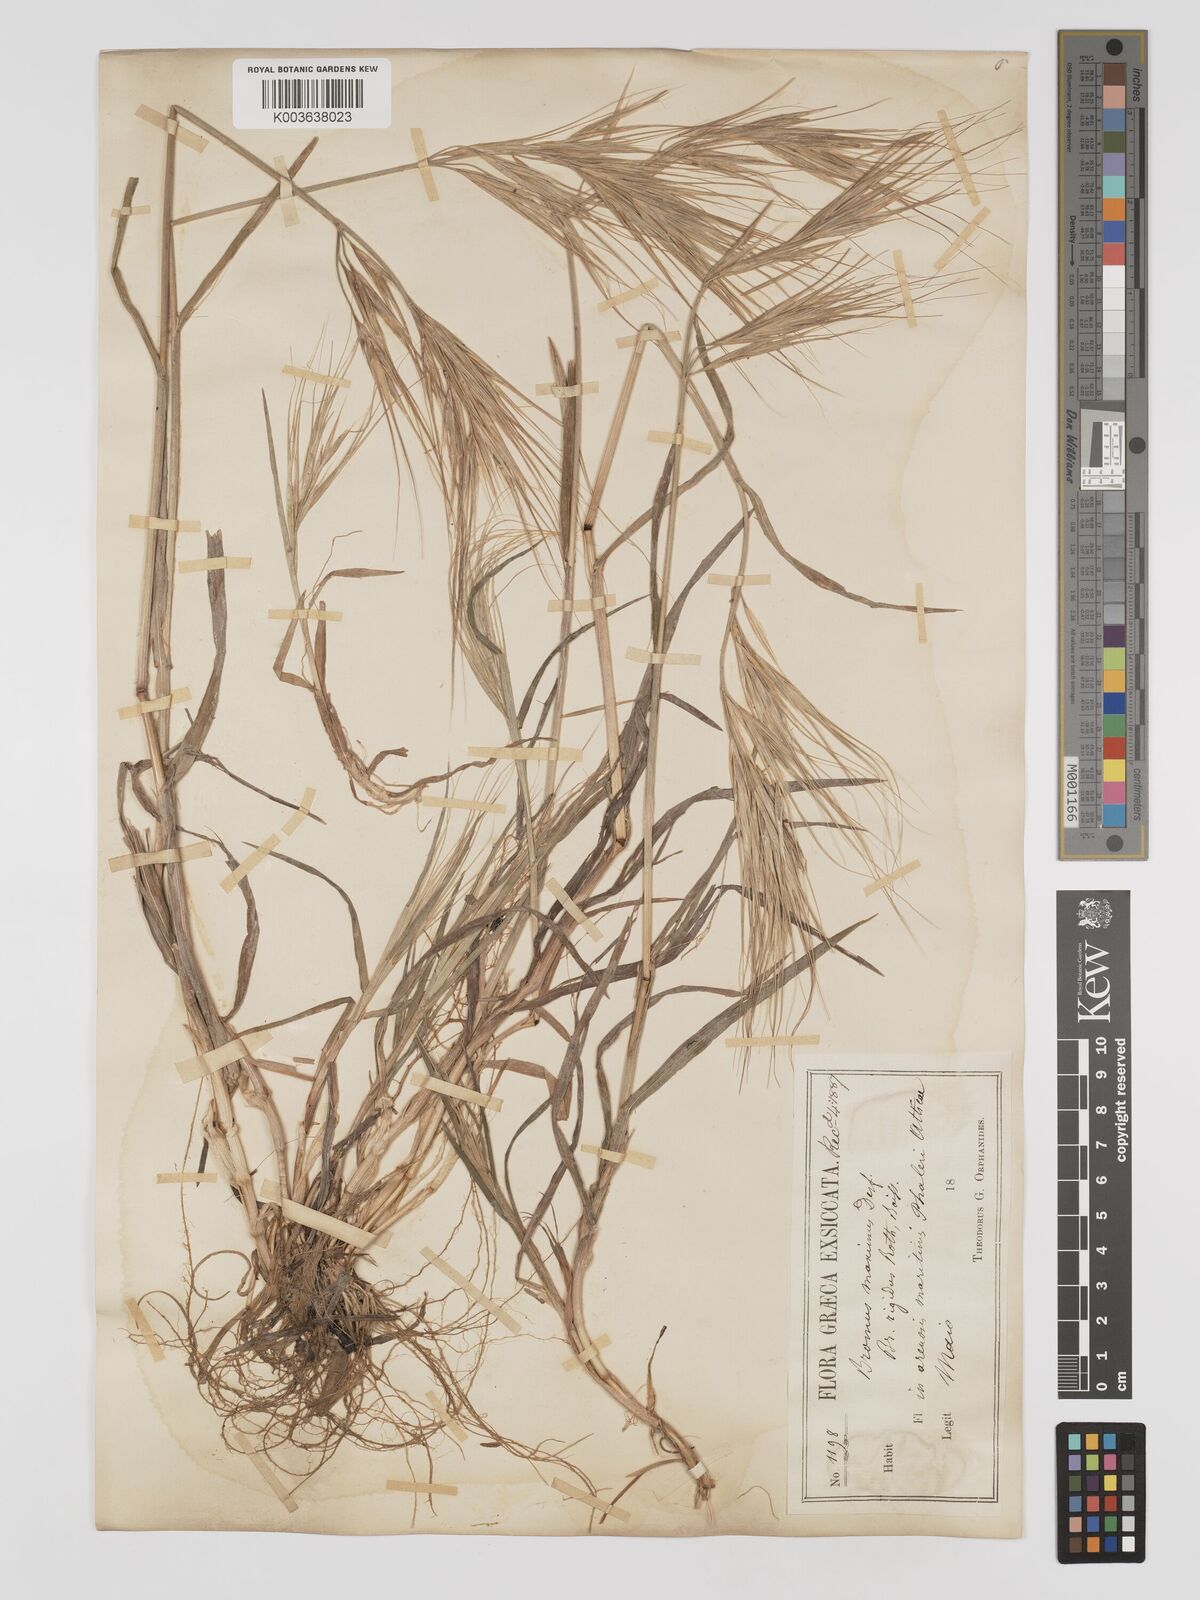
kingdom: Plantae
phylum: Tracheophyta
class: Liliopsida
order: Poales
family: Poaceae
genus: Bromus
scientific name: Bromus
